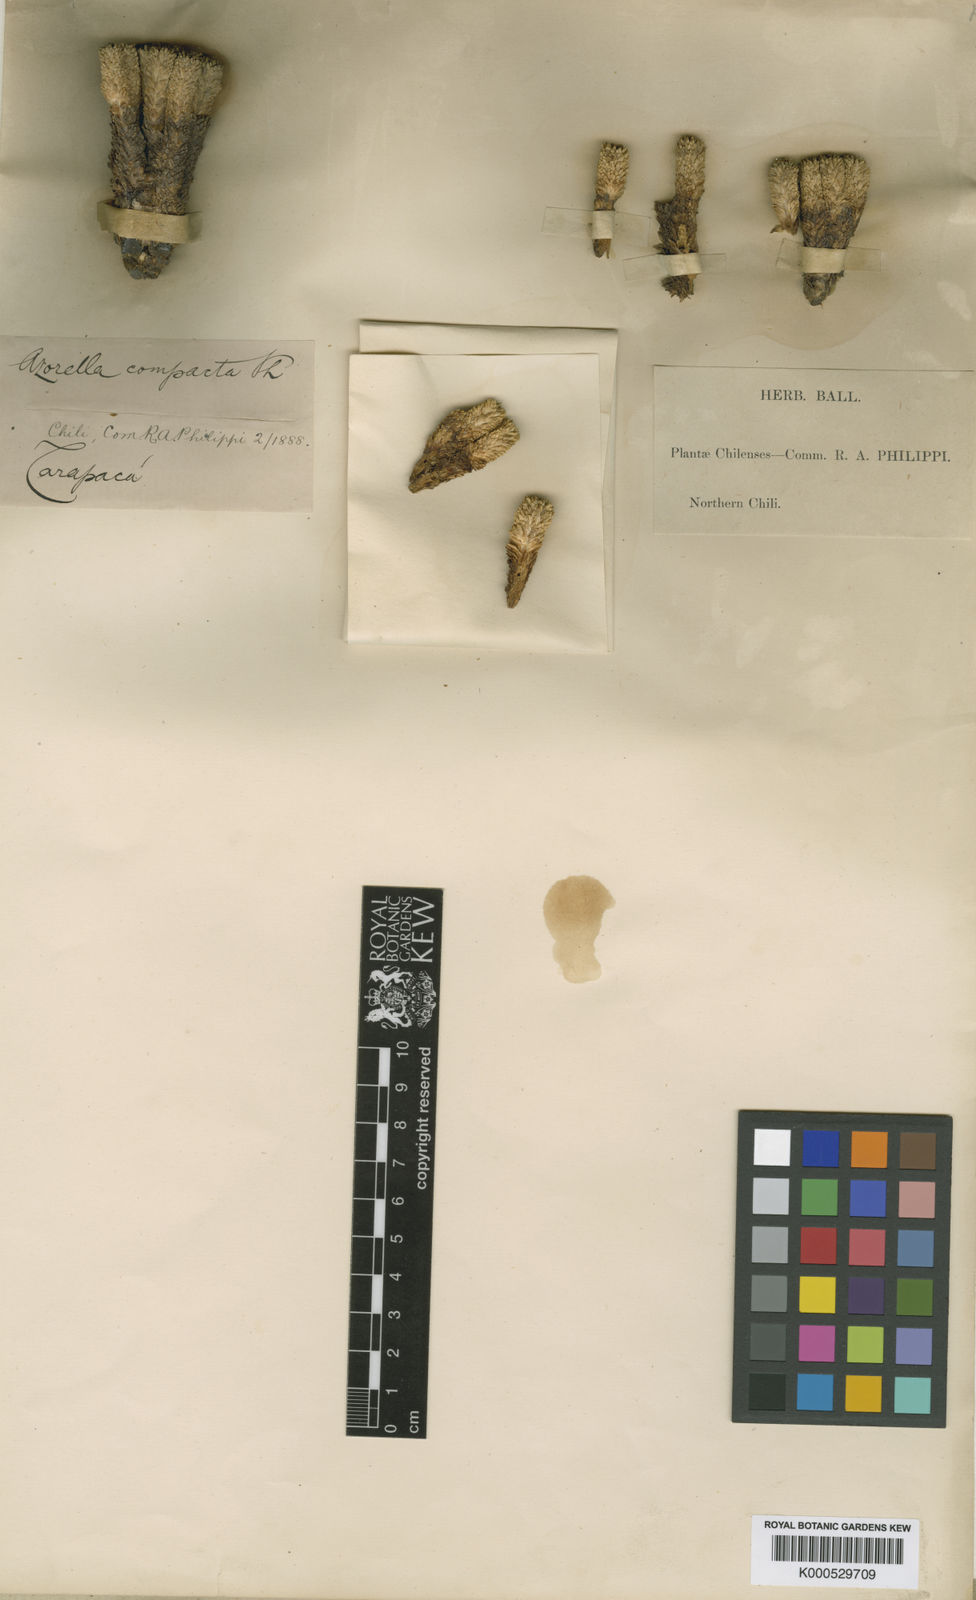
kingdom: Plantae
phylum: Tracheophyta
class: Magnoliopsida
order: Apiales
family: Apiaceae
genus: Azorella
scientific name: Azorella ruizii
